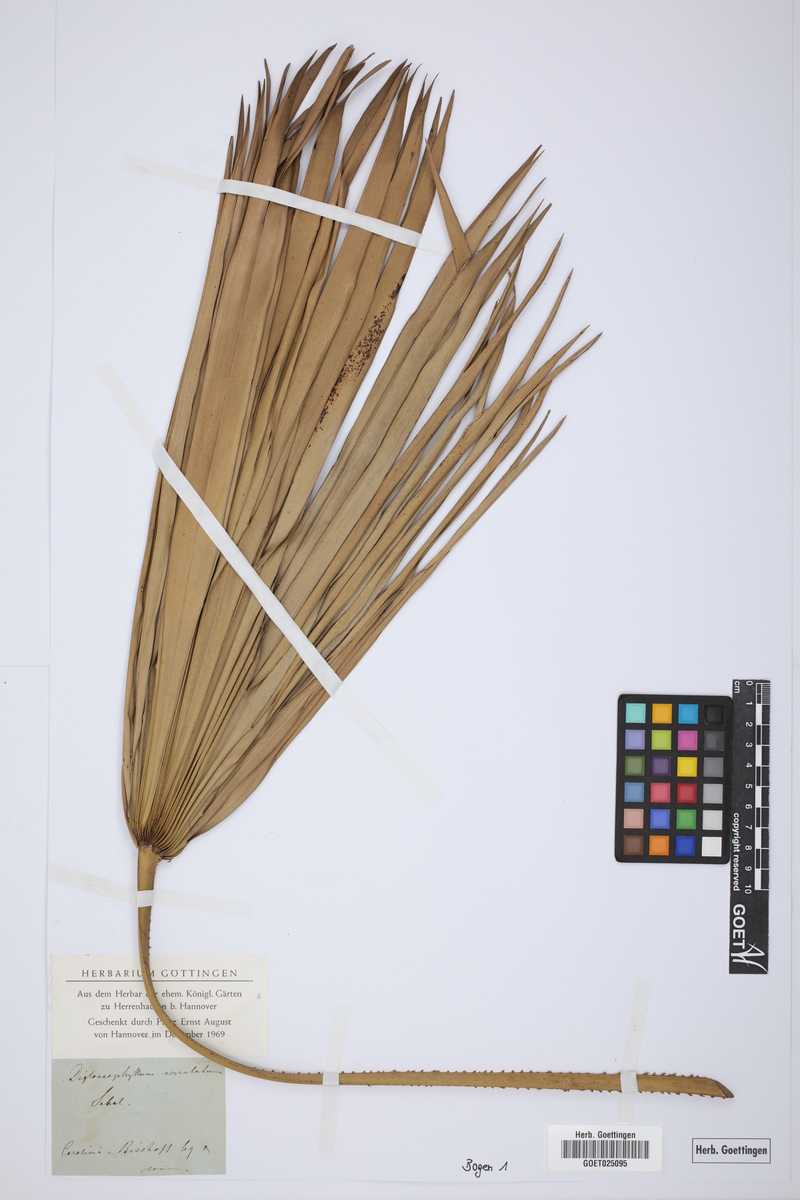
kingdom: Plantae
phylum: Tracheophyta
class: Liliopsida
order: Arecales
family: Arecaceae
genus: Serenoa
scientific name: Serenoa repens
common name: Saw-palmetto
